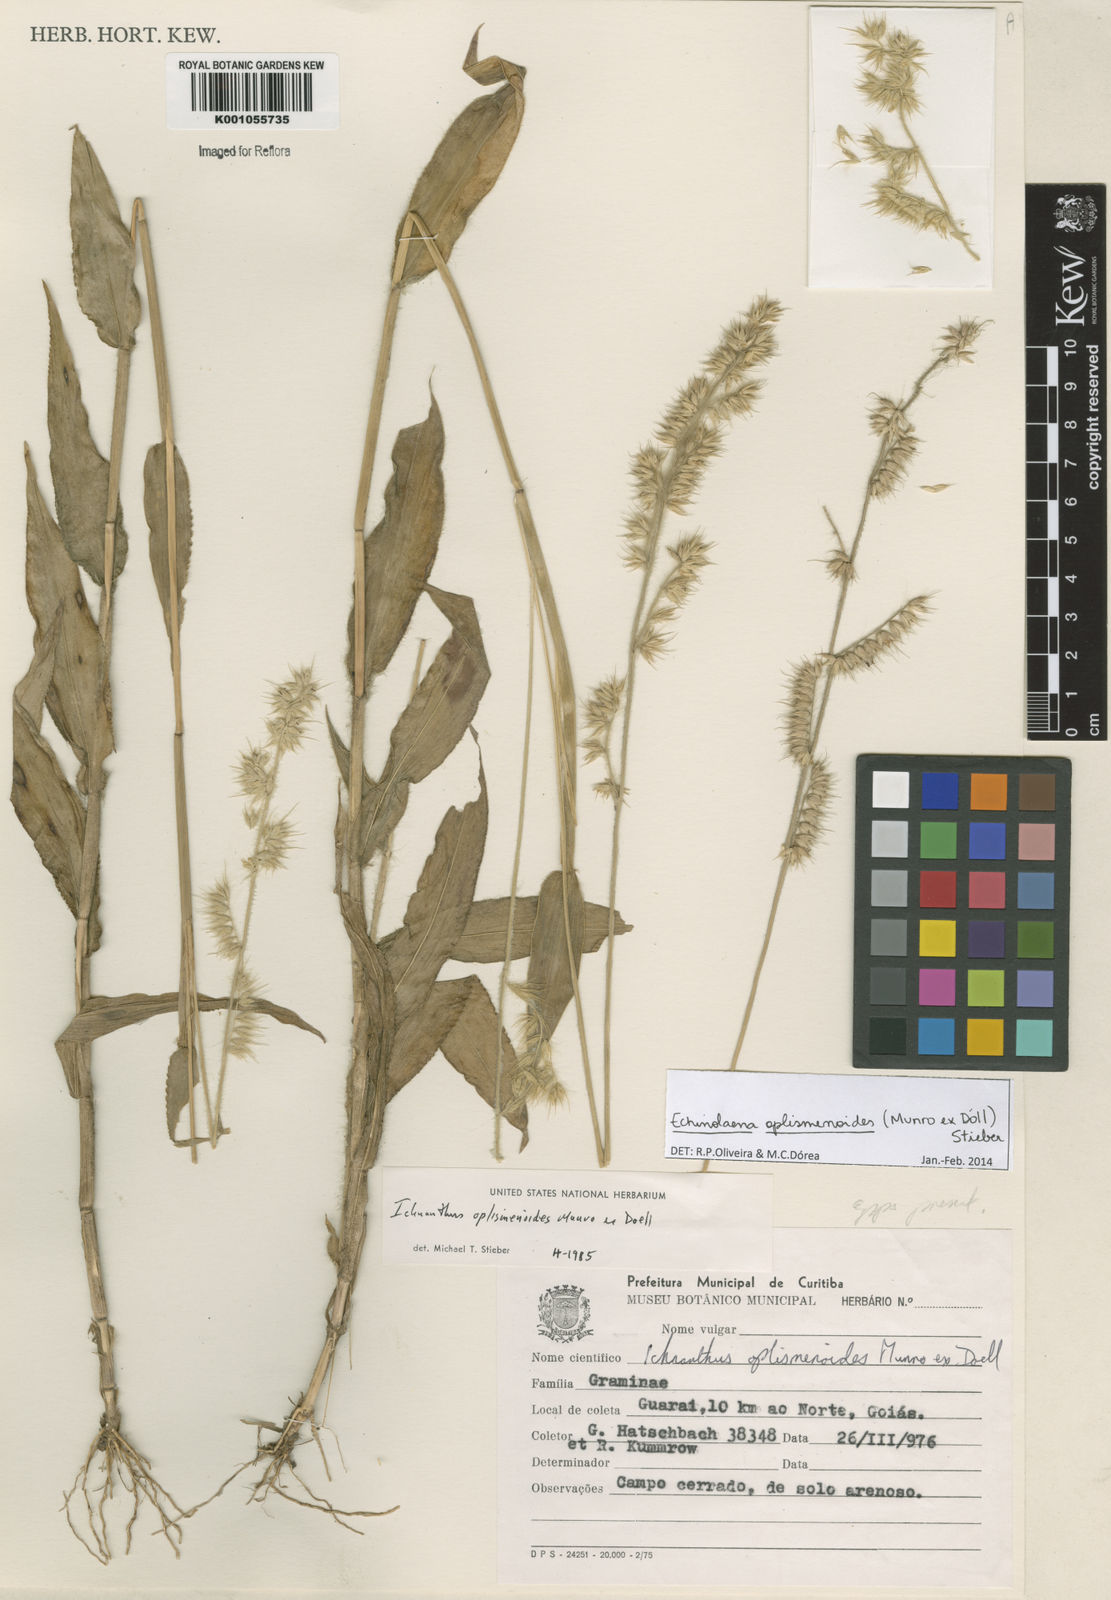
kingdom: Plantae
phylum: Tracheophyta
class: Liliopsida
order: Poales
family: Poaceae
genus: Echinolaena
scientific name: Echinolaena
